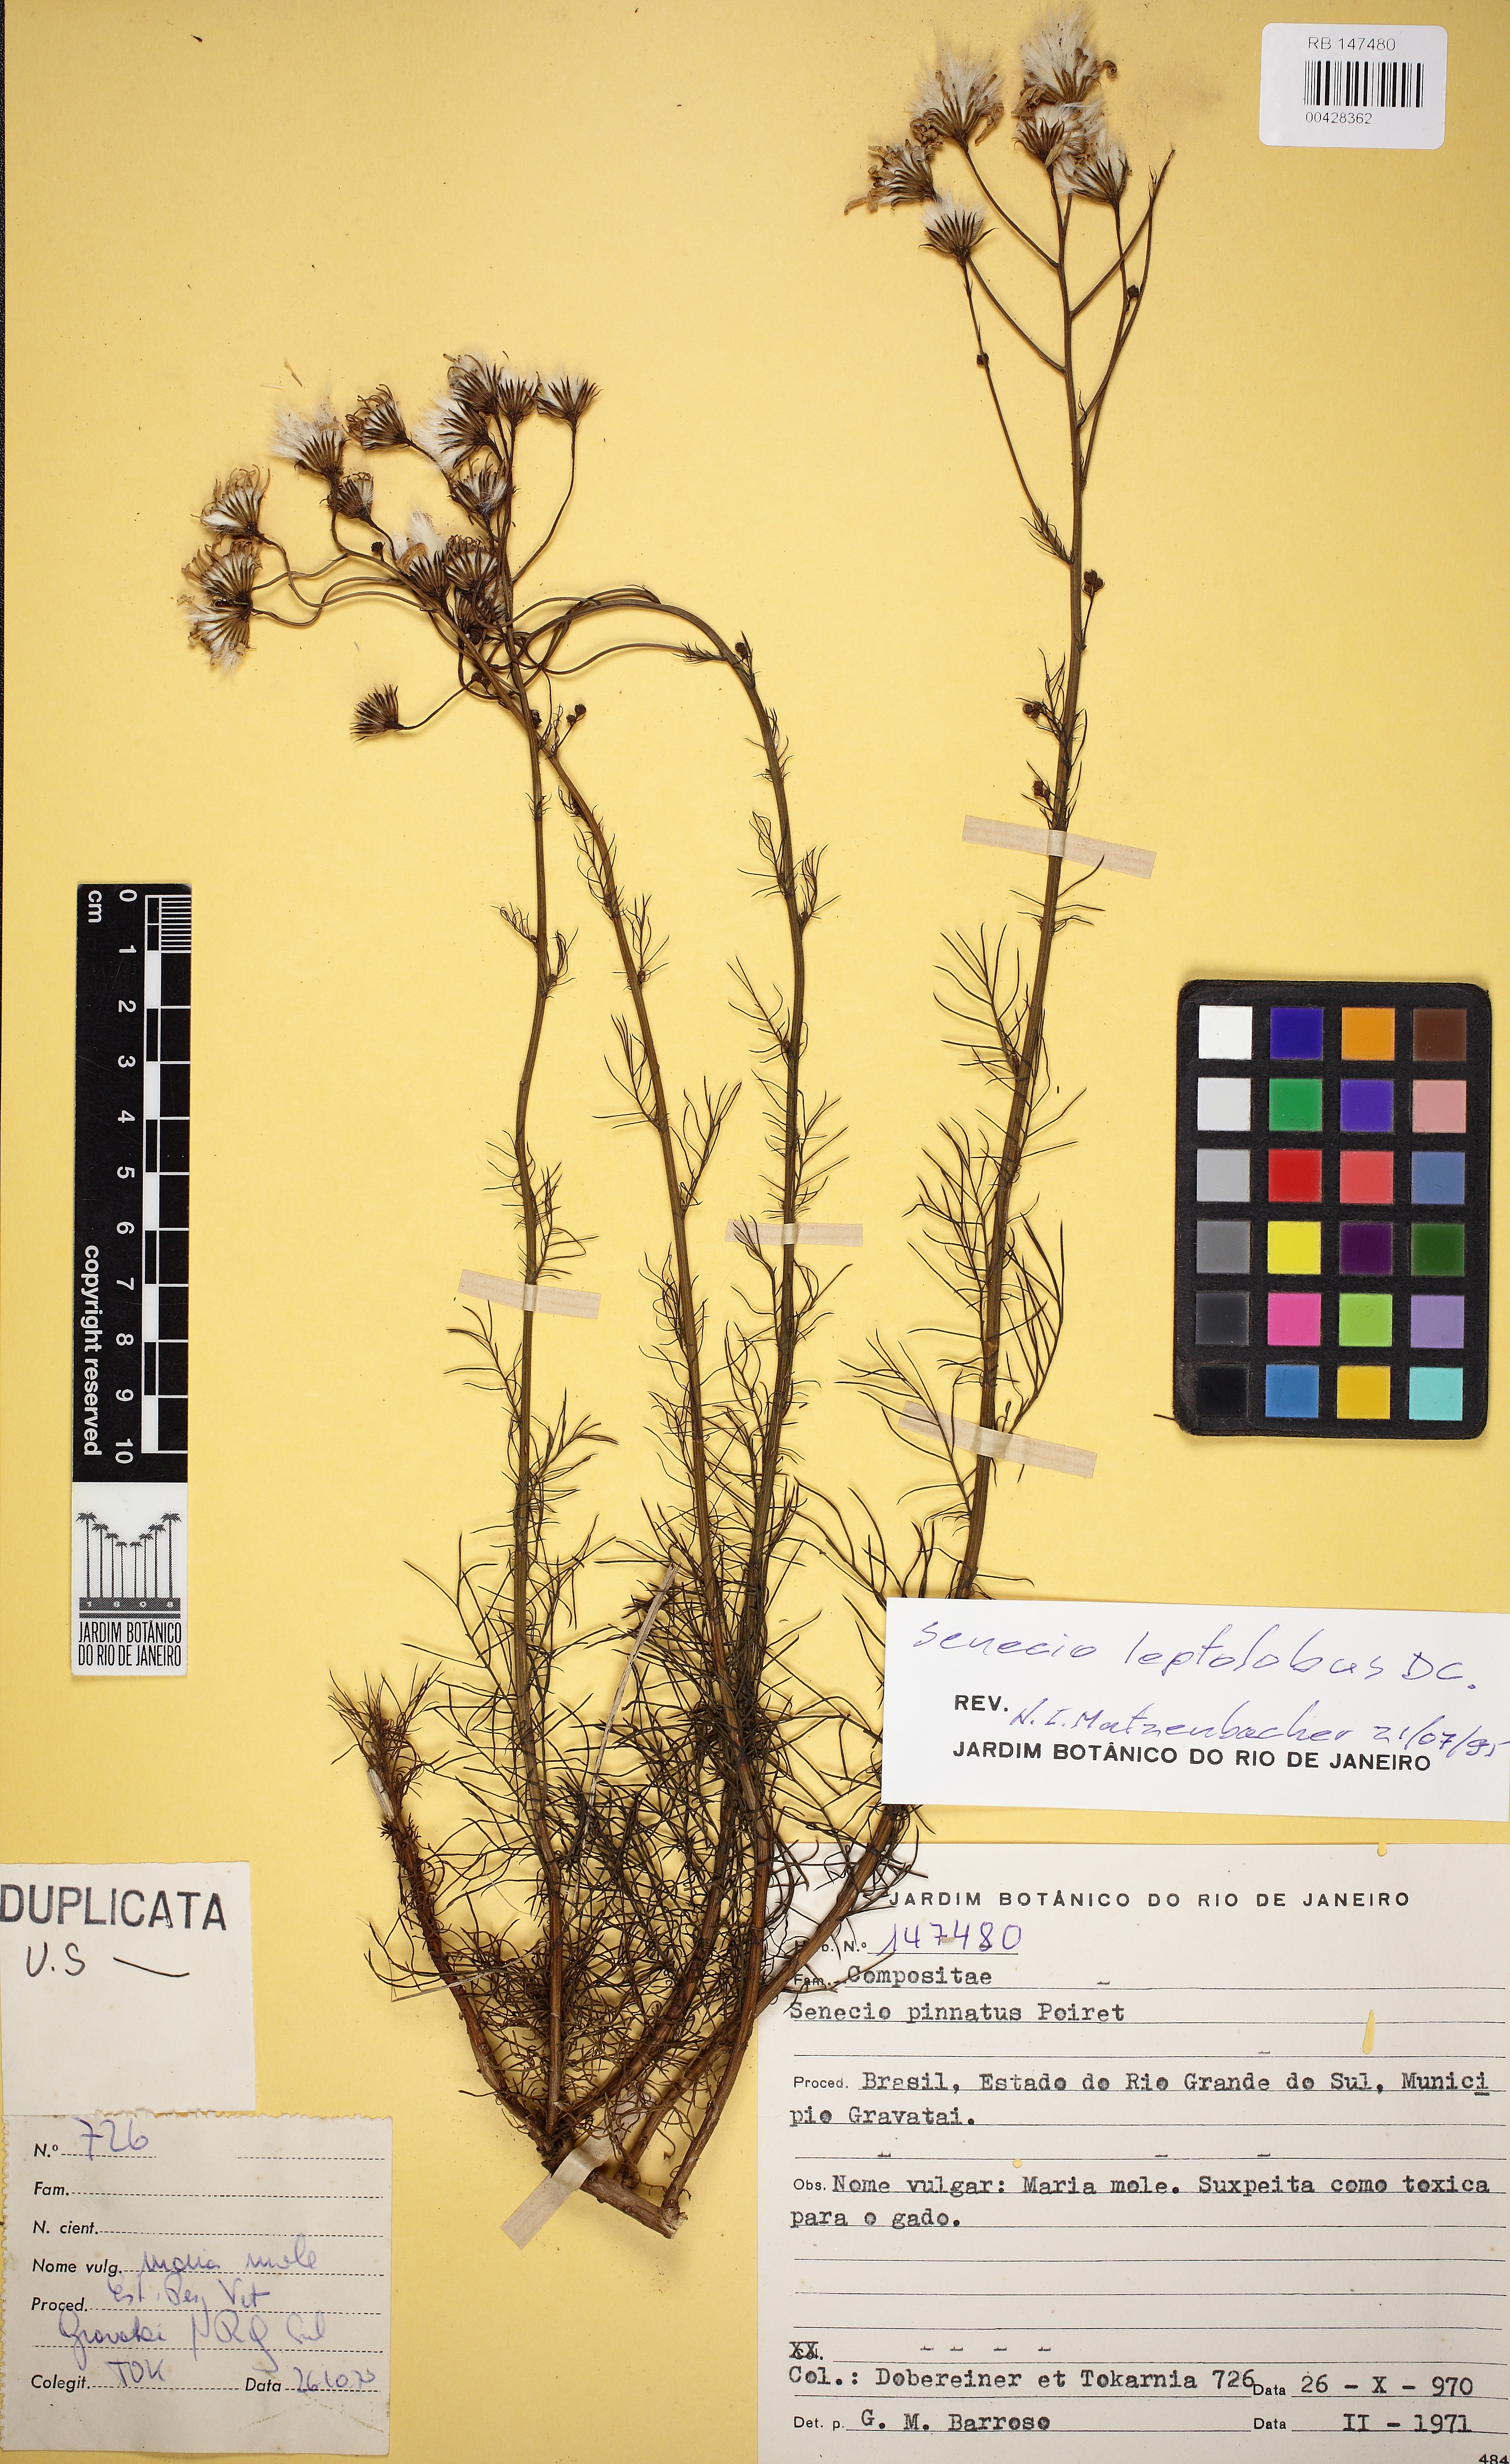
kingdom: Plantae
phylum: Tracheophyta
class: Magnoliopsida
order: Asterales
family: Asteraceae
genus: Senecio
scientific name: Senecio leptolobus
